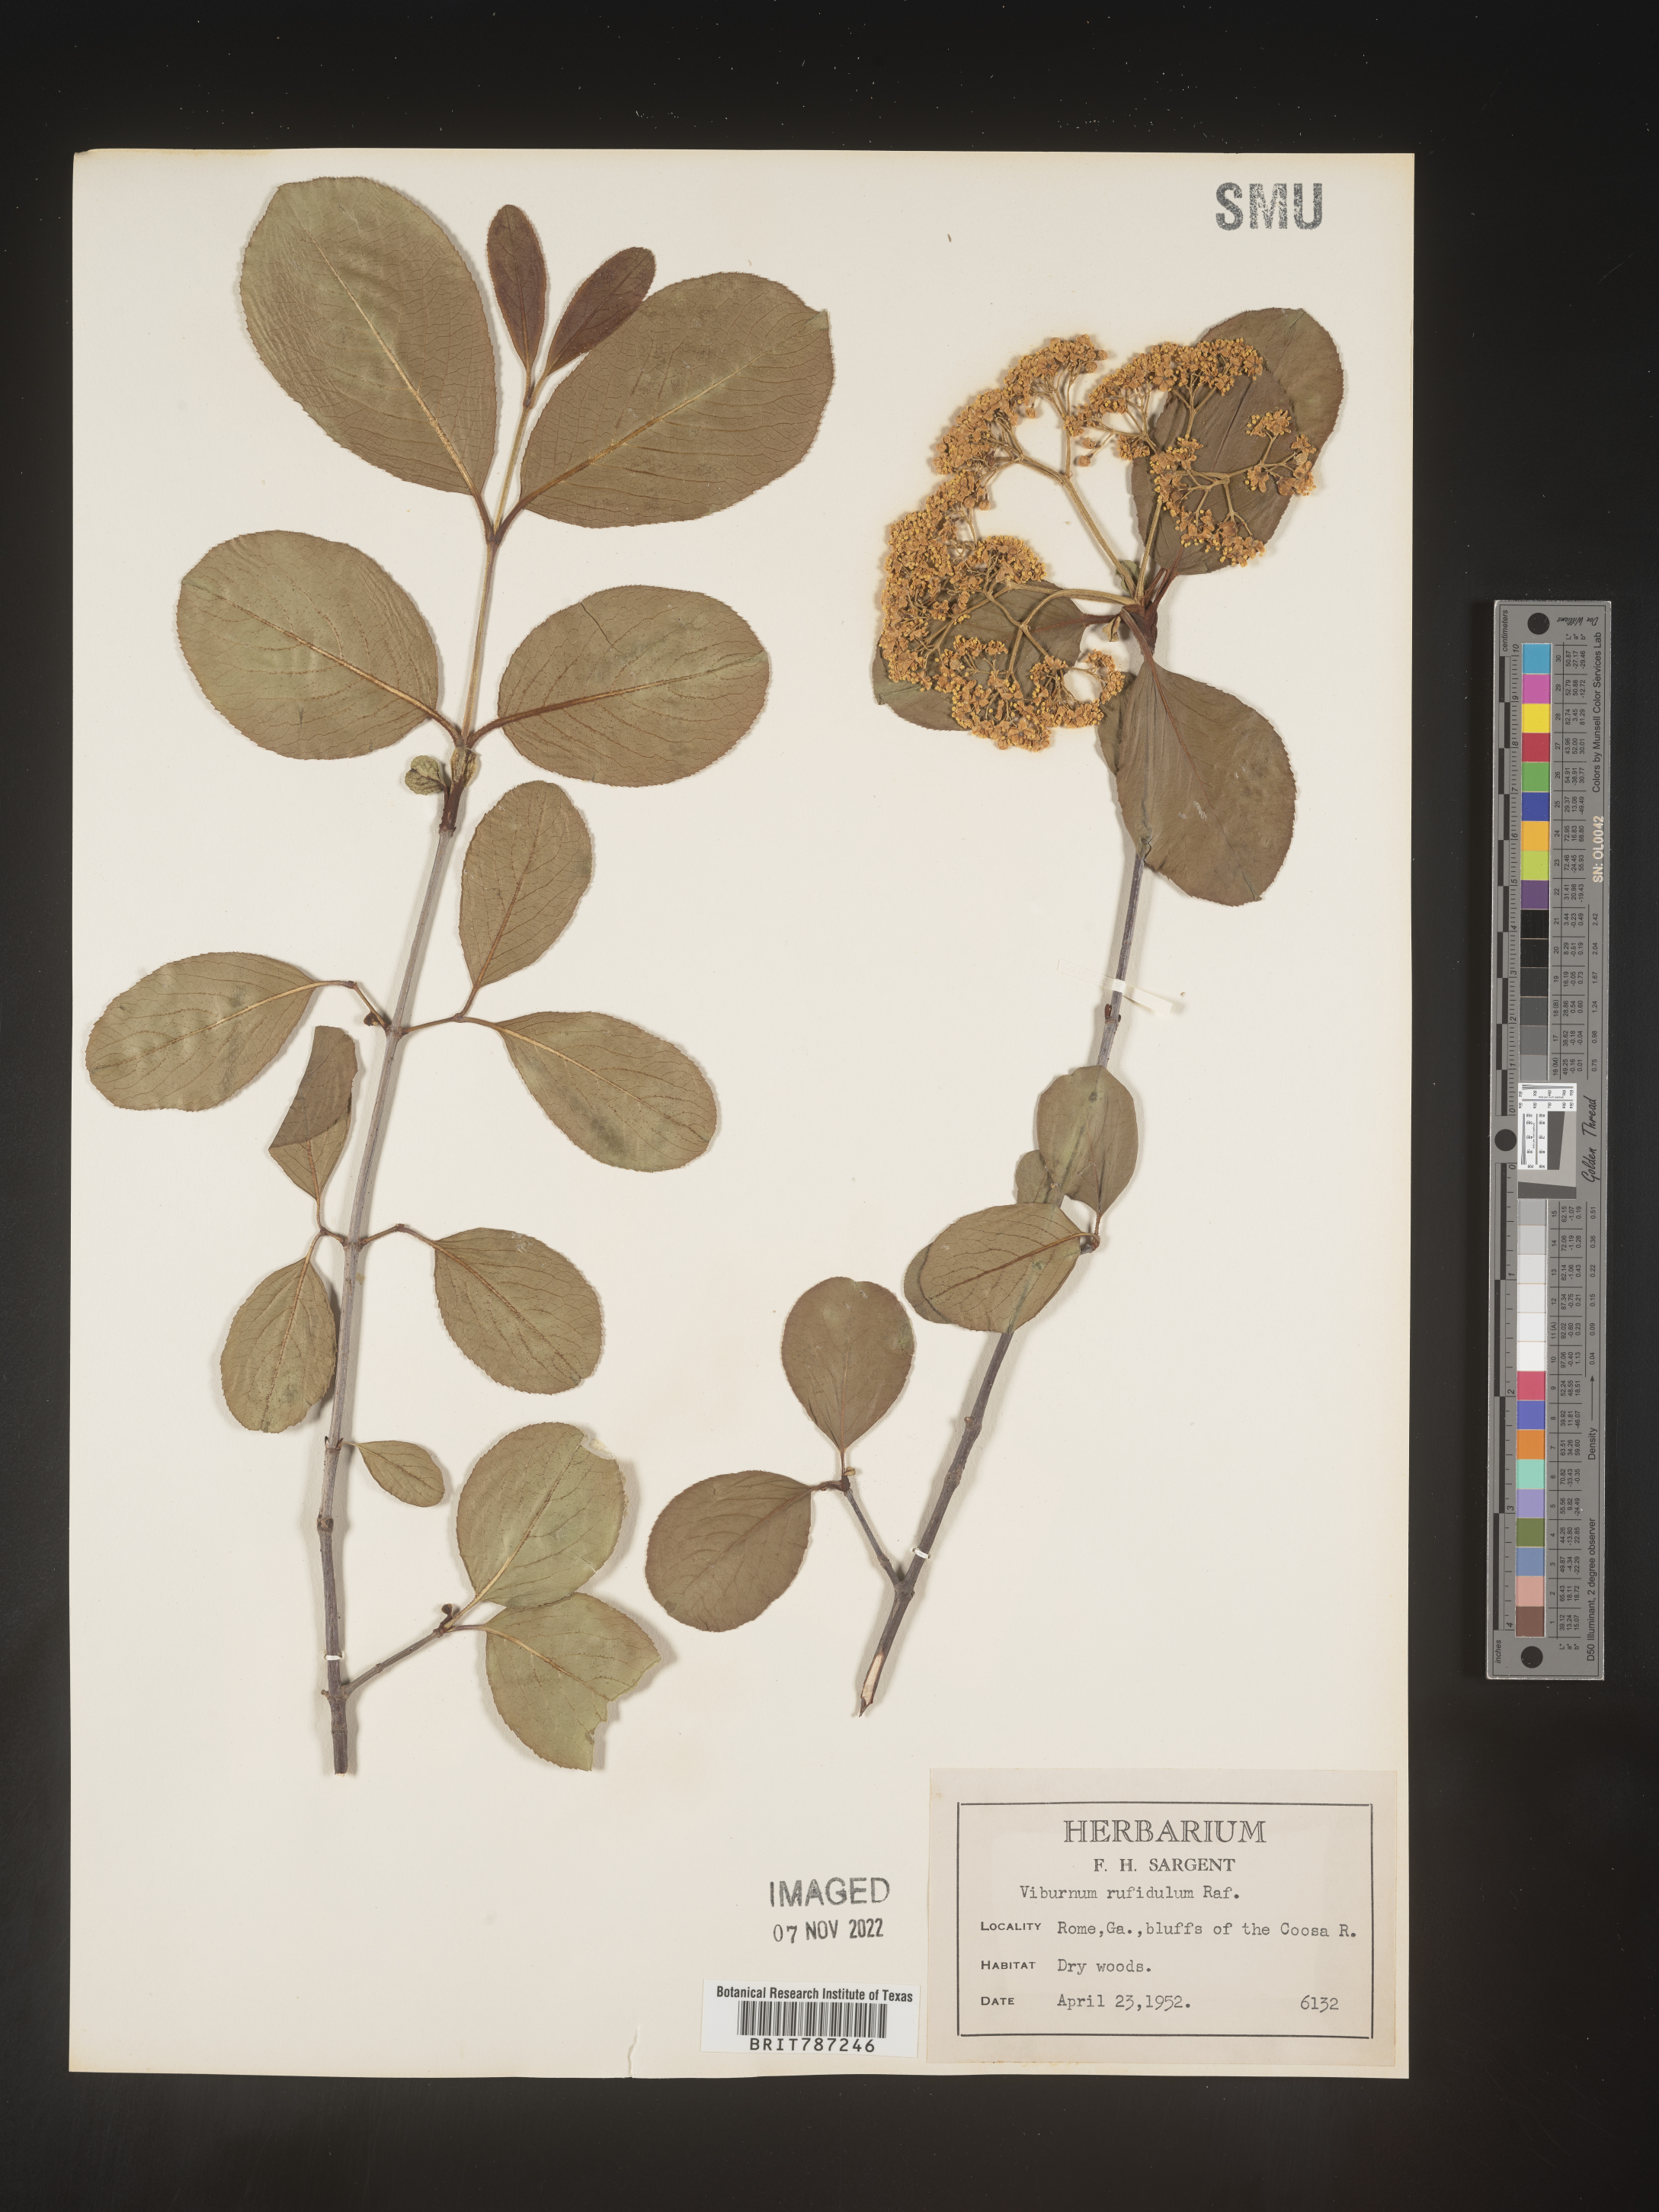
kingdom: Plantae
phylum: Tracheophyta
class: Magnoliopsida
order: Dipsacales
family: Viburnaceae
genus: Viburnum
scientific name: Viburnum rufidulum
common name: Blue haw
